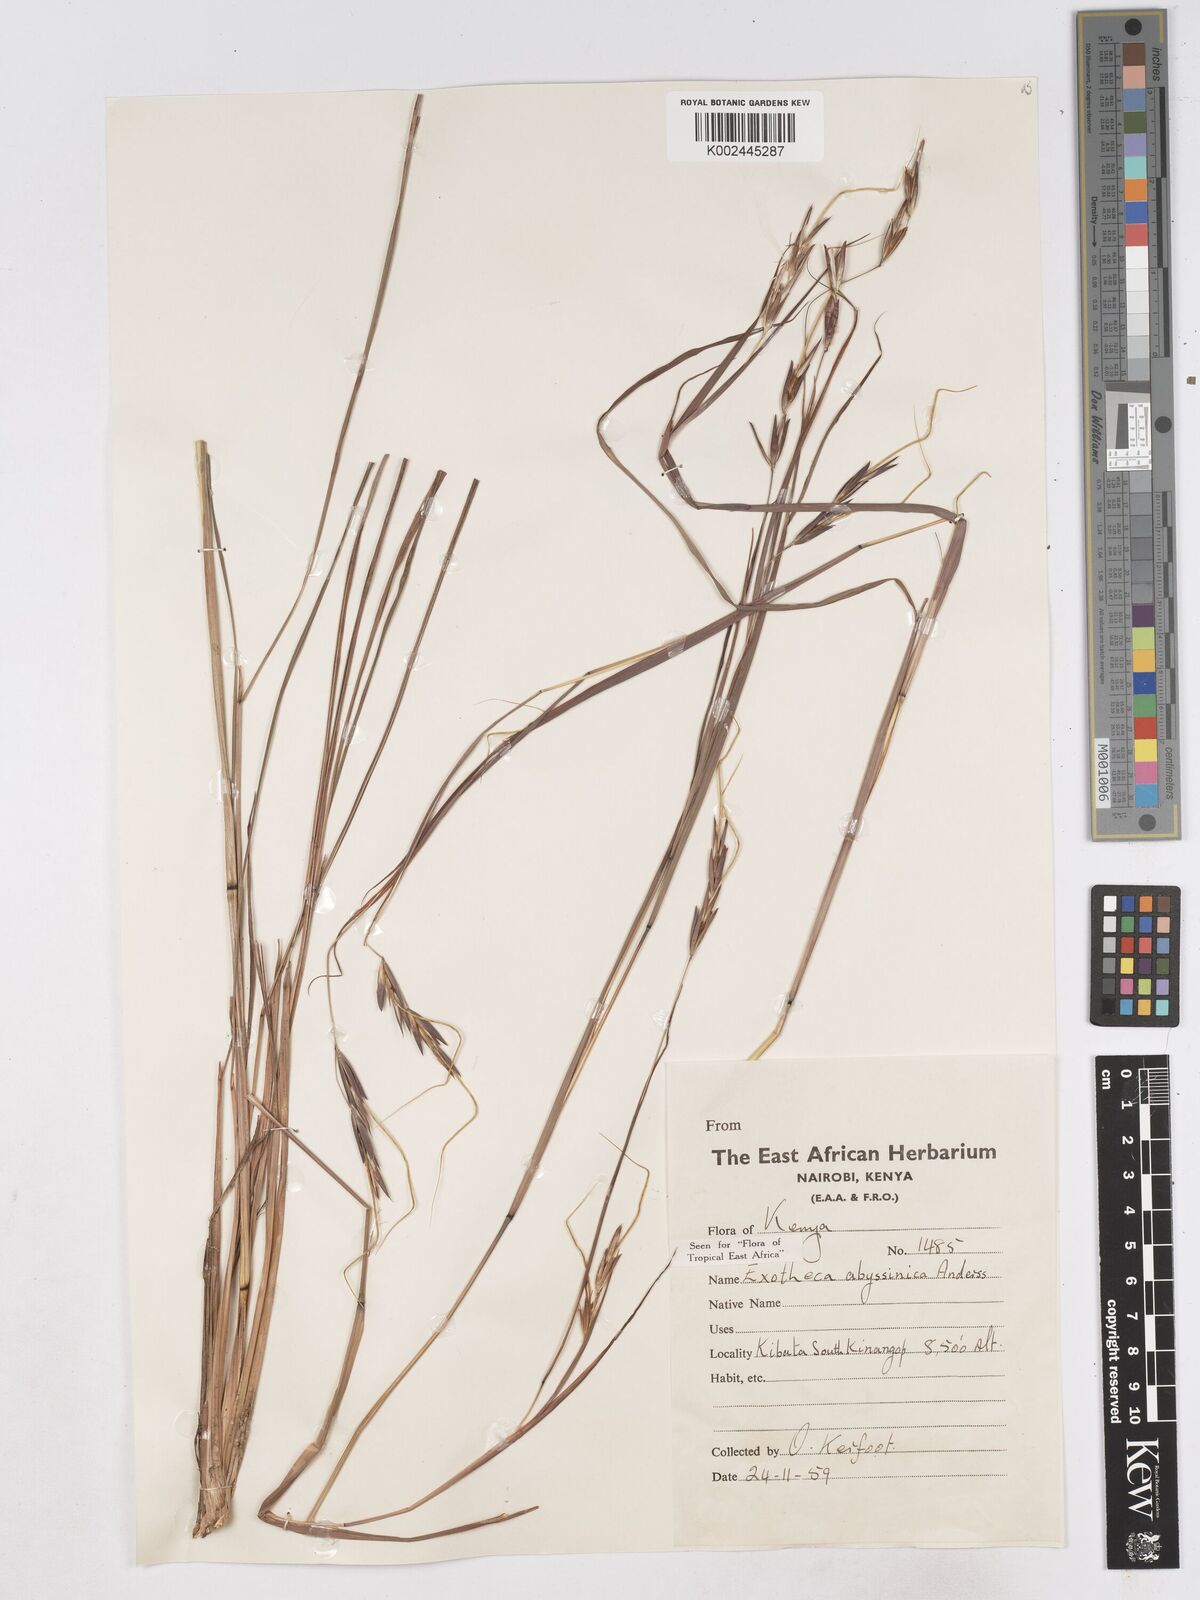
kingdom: Plantae
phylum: Tracheophyta
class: Liliopsida
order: Poales
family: Poaceae
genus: Exotheca
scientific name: Exotheca abyssinica
